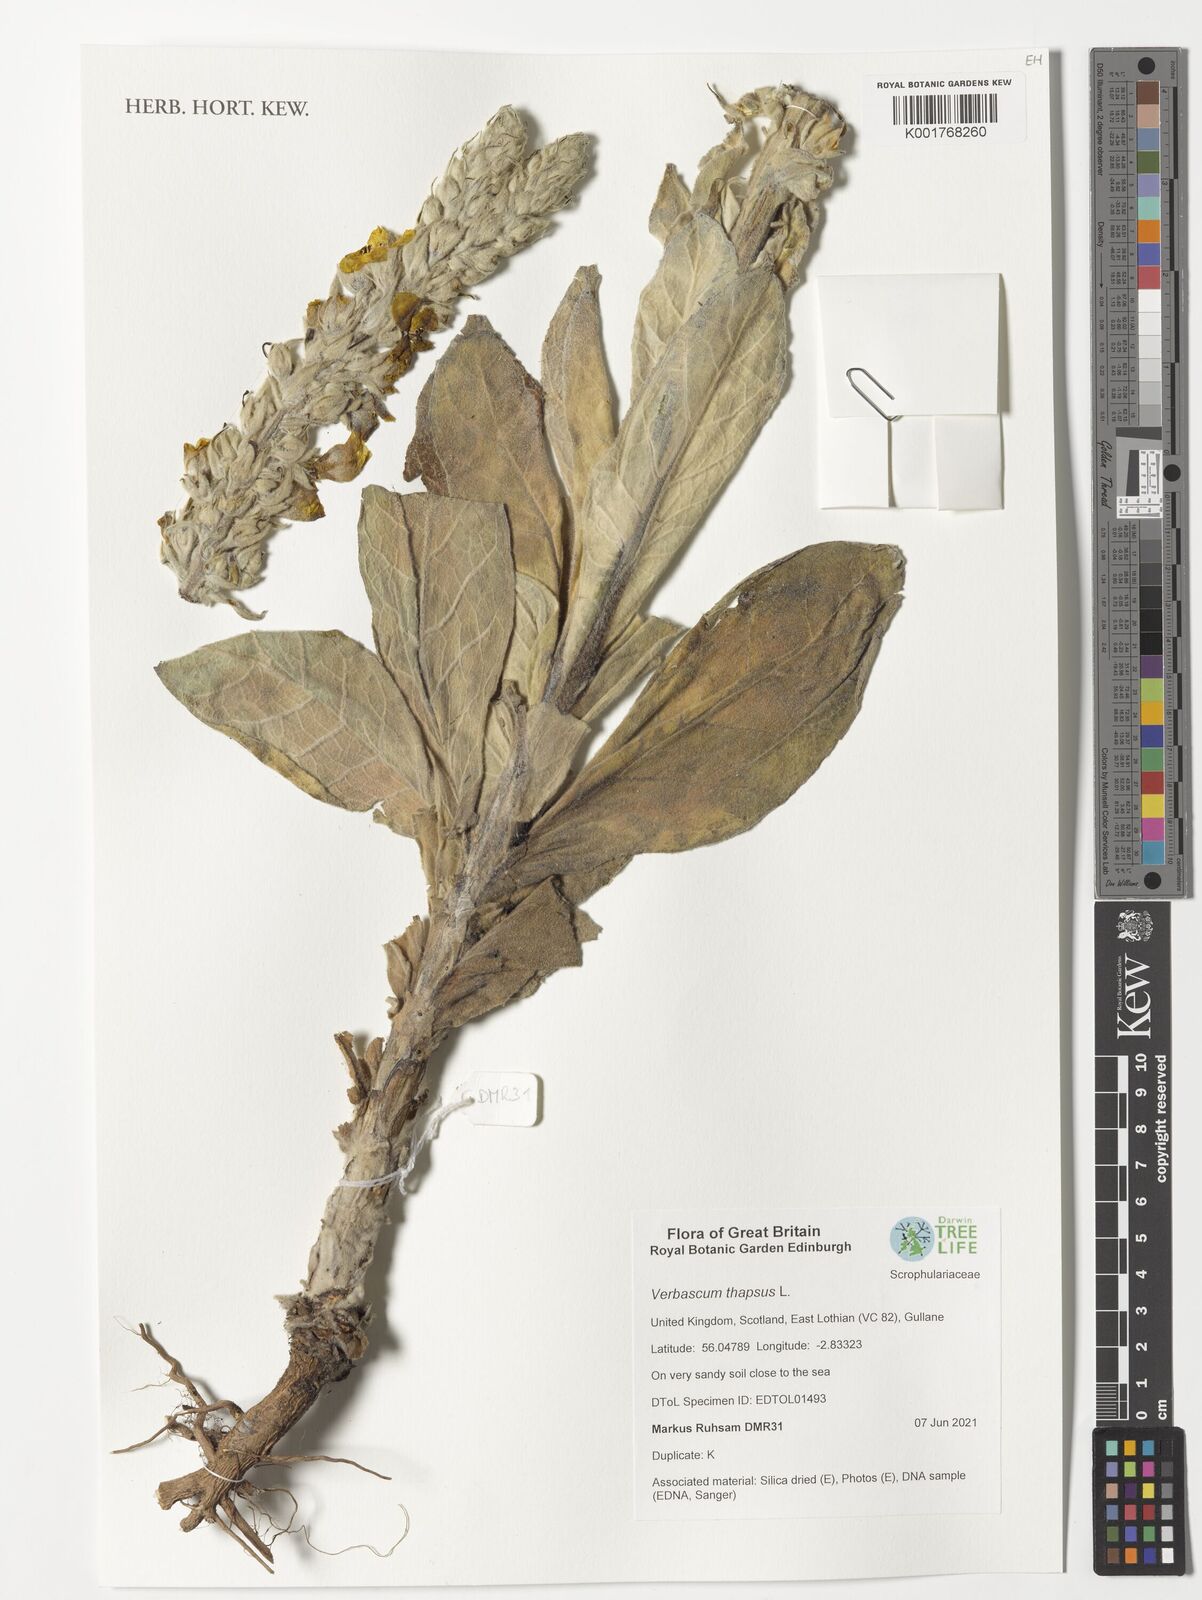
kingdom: Plantae
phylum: Tracheophyta
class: Magnoliopsida
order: Lamiales
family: Scrophulariaceae
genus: Verbascum
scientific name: Verbascum thapsus
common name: Common mullein
